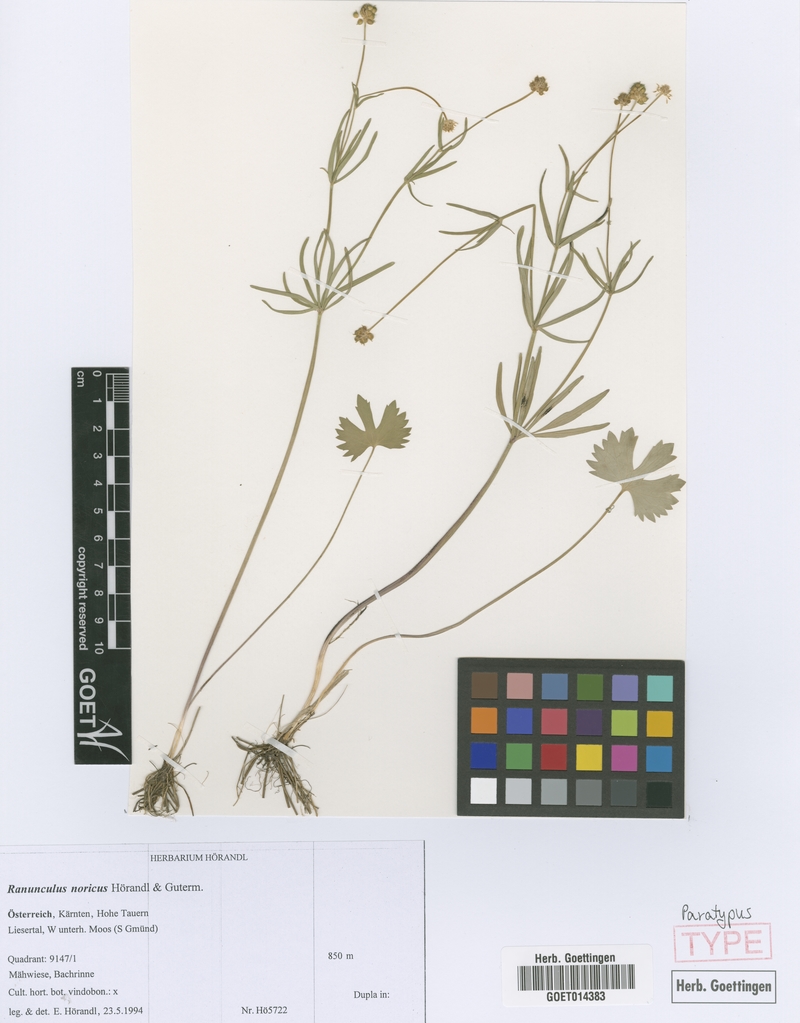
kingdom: Plantae
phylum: Tracheophyta
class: Magnoliopsida
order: Ranunculales
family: Ranunculaceae
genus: Ranunculus
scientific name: Ranunculus noricus
